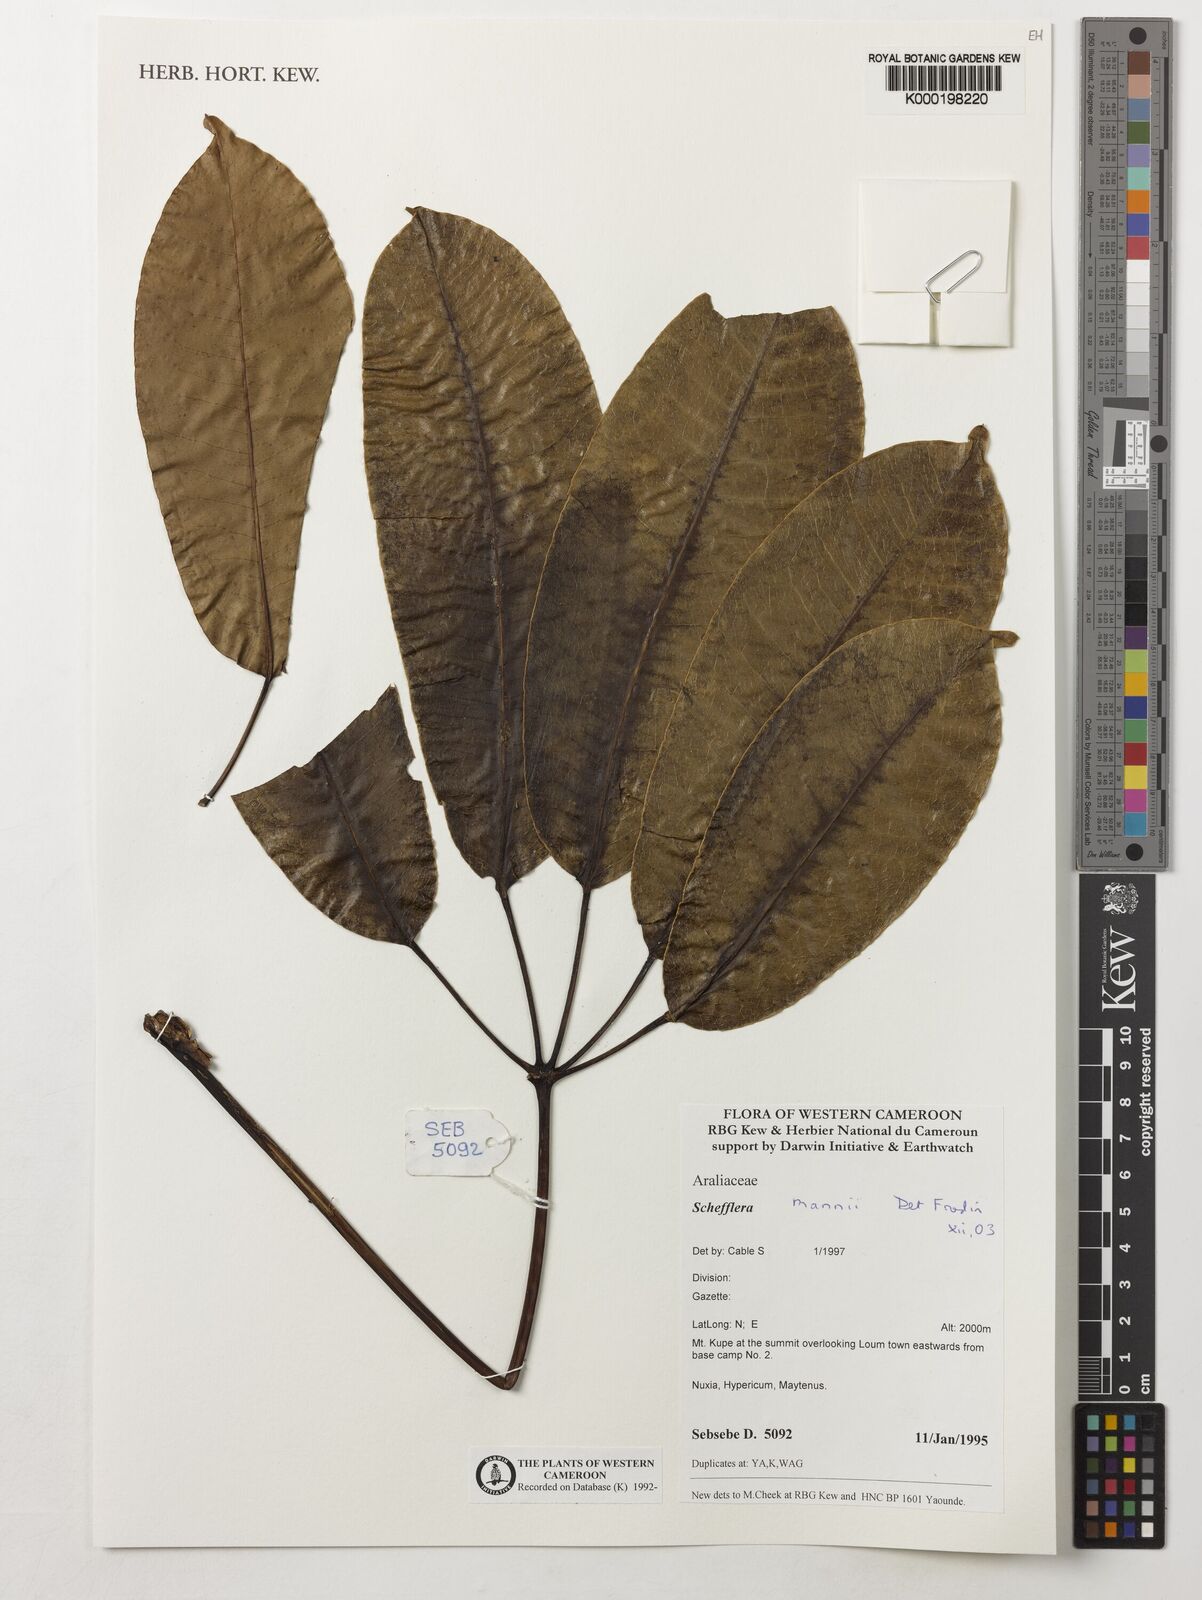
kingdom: Plantae
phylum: Tracheophyta
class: Magnoliopsida
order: Apiales
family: Araliaceae
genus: Astropanax
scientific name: Astropanax mannii
